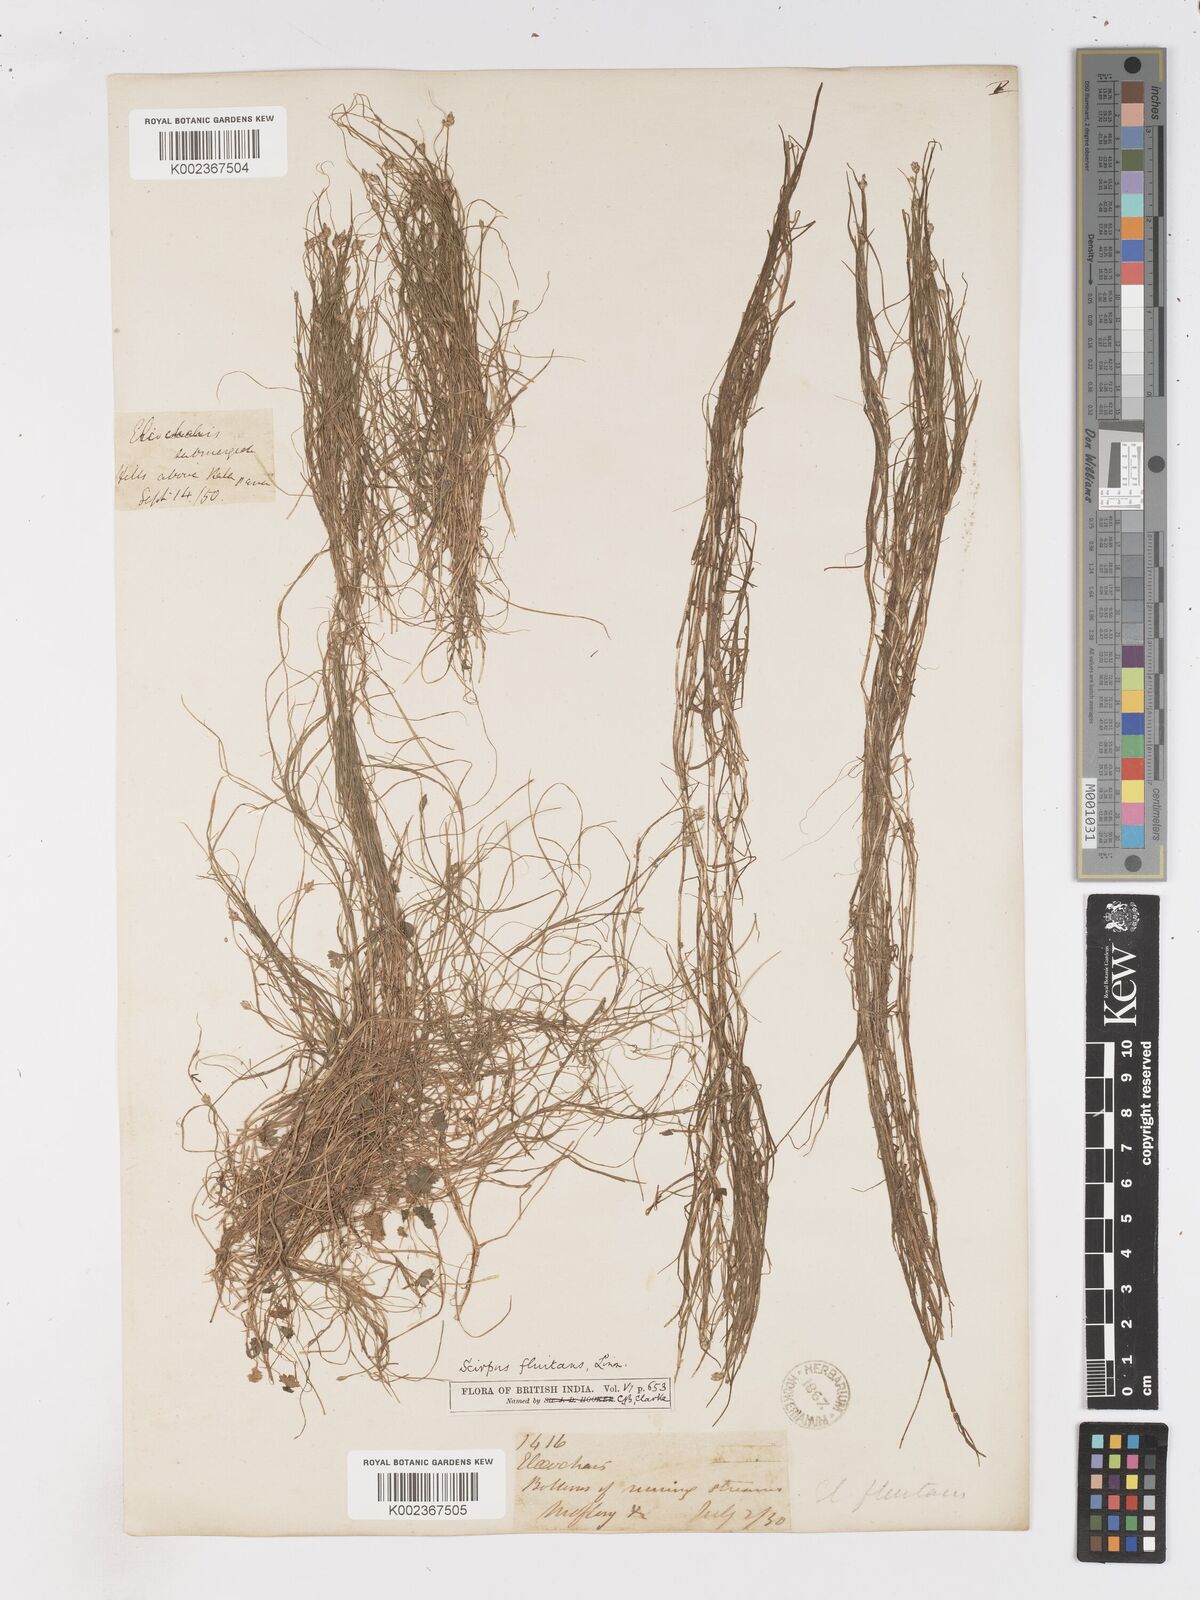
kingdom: Plantae
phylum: Tracheophyta
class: Liliopsida
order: Poales
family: Cyperaceae
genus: Isolepis
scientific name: Isolepis fluitans
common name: Floating club-rush
